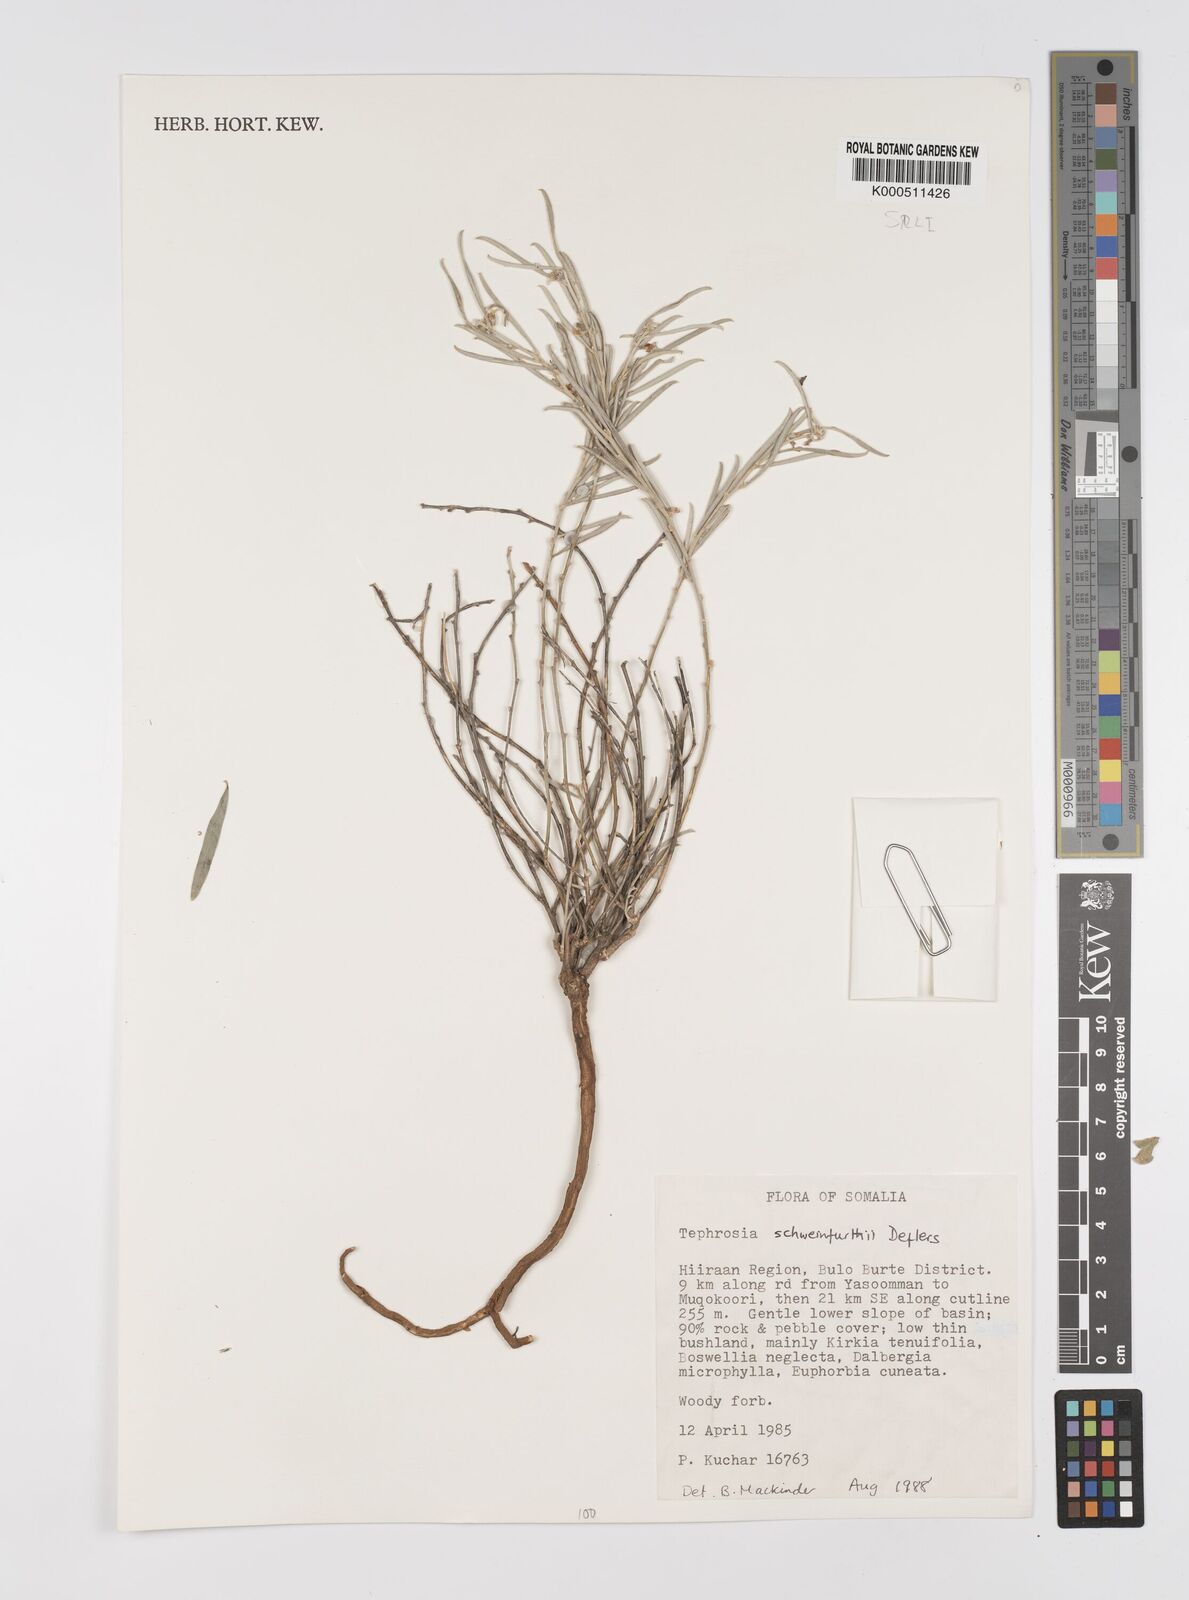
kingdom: Plantae
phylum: Tracheophyta
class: Magnoliopsida
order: Fabales
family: Fabaceae
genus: Tephrosia
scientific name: Tephrosia heterophylla
